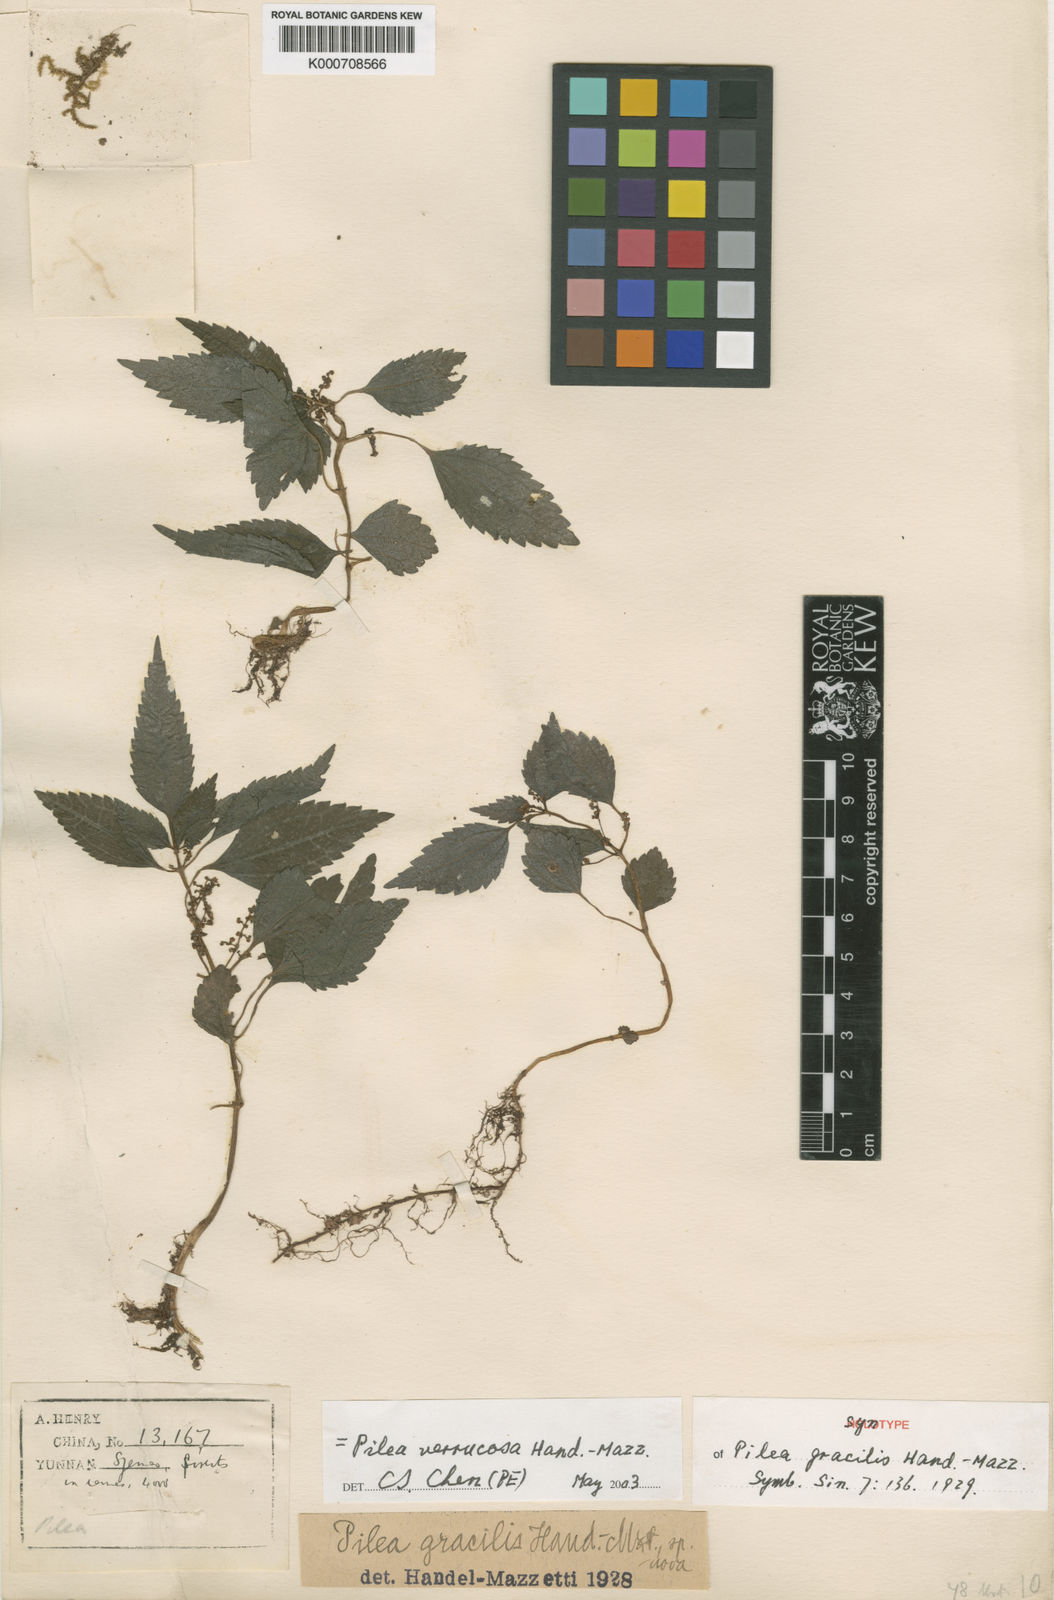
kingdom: Plantae
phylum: Tracheophyta
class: Magnoliopsida
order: Rosales
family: Urticaceae
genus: Pilea
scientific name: Pilea gracilis
